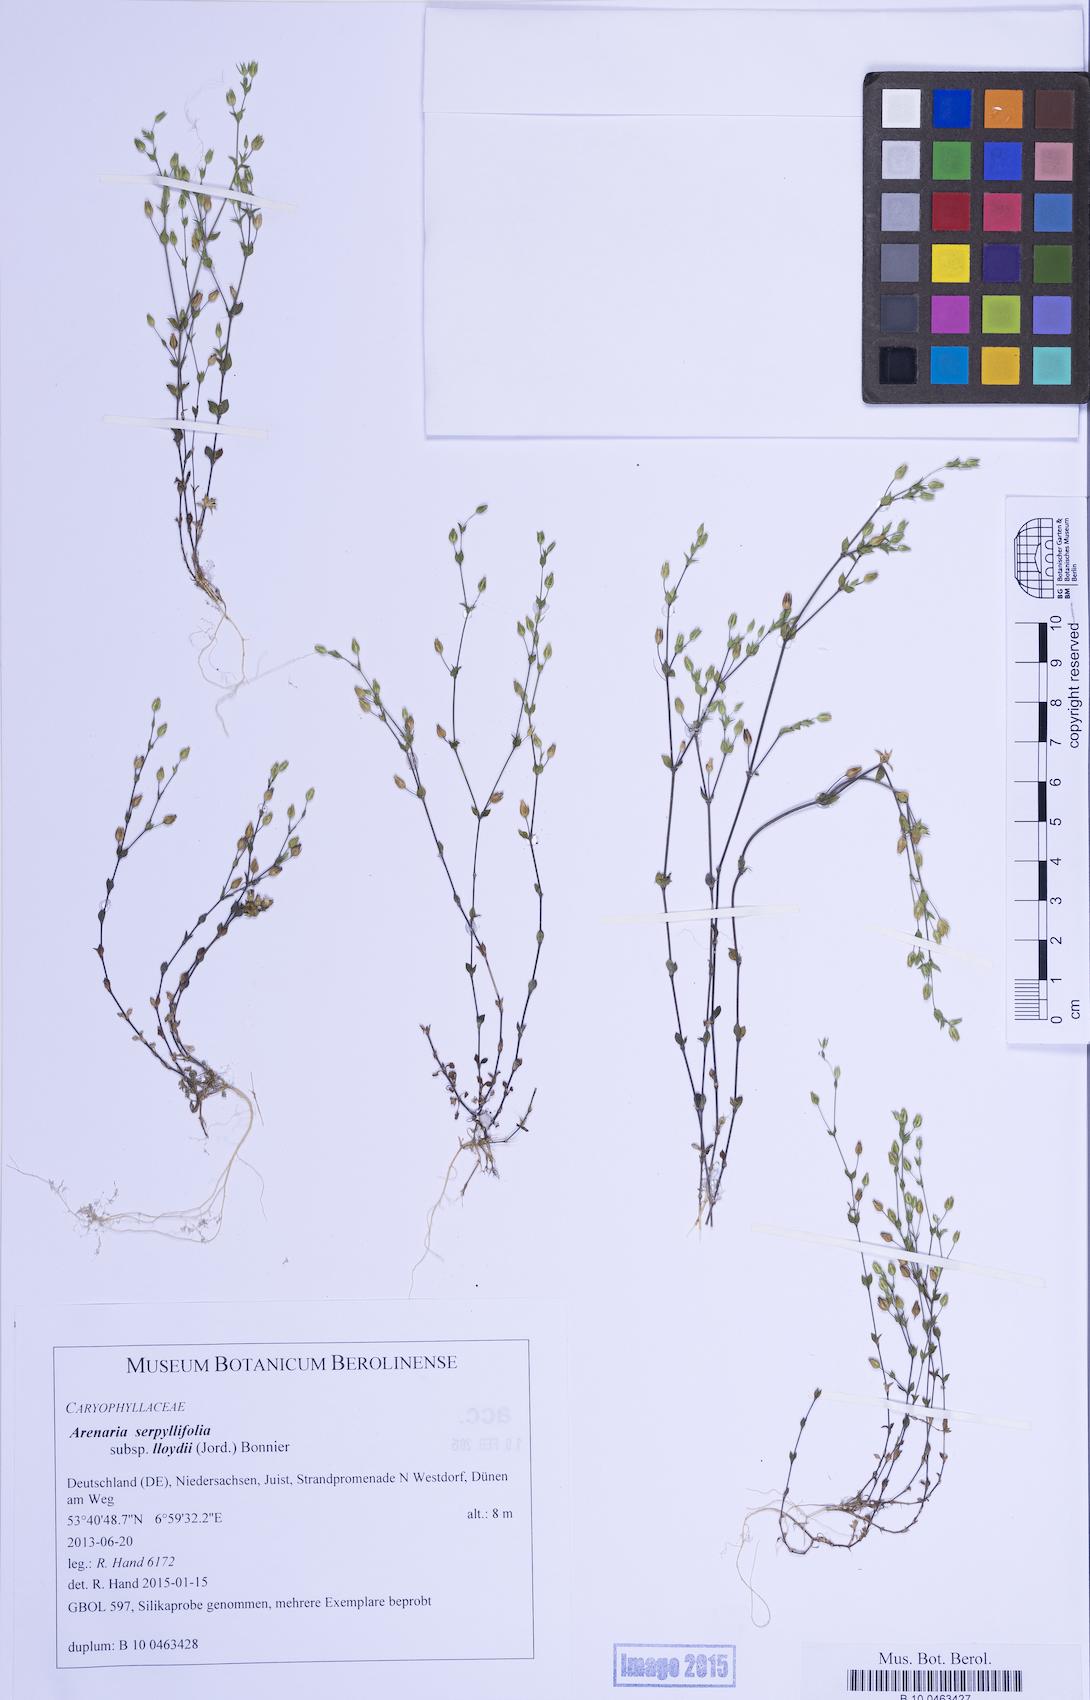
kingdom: Plantae
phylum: Tracheophyta
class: Magnoliopsida
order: Caryophyllales
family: Caryophyllaceae
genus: Arenaria
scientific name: Arenaria serpyllifolia
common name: Thyme-leaved sandwort
